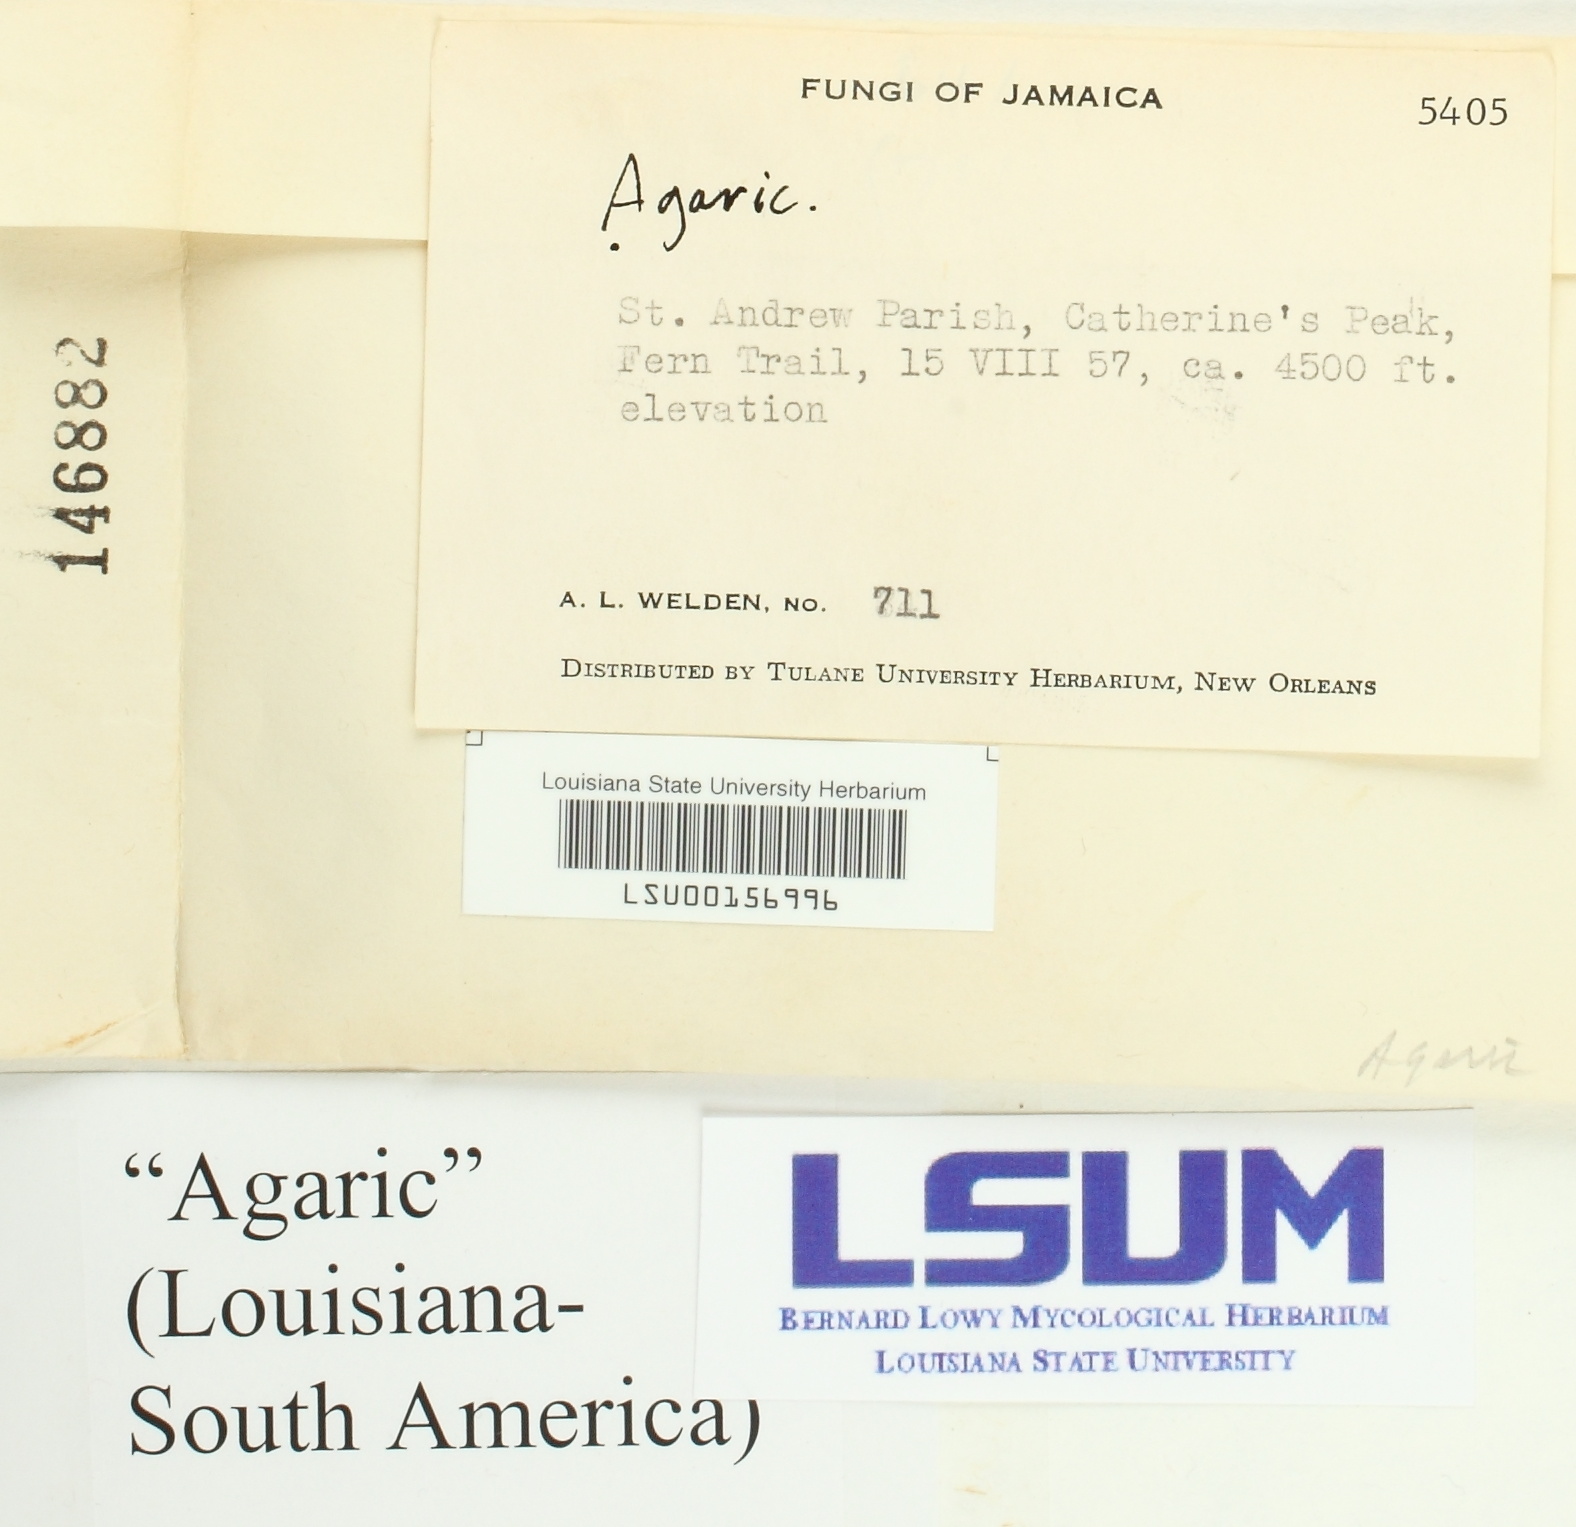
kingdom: Fungi
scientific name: Fungi
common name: Fungi
